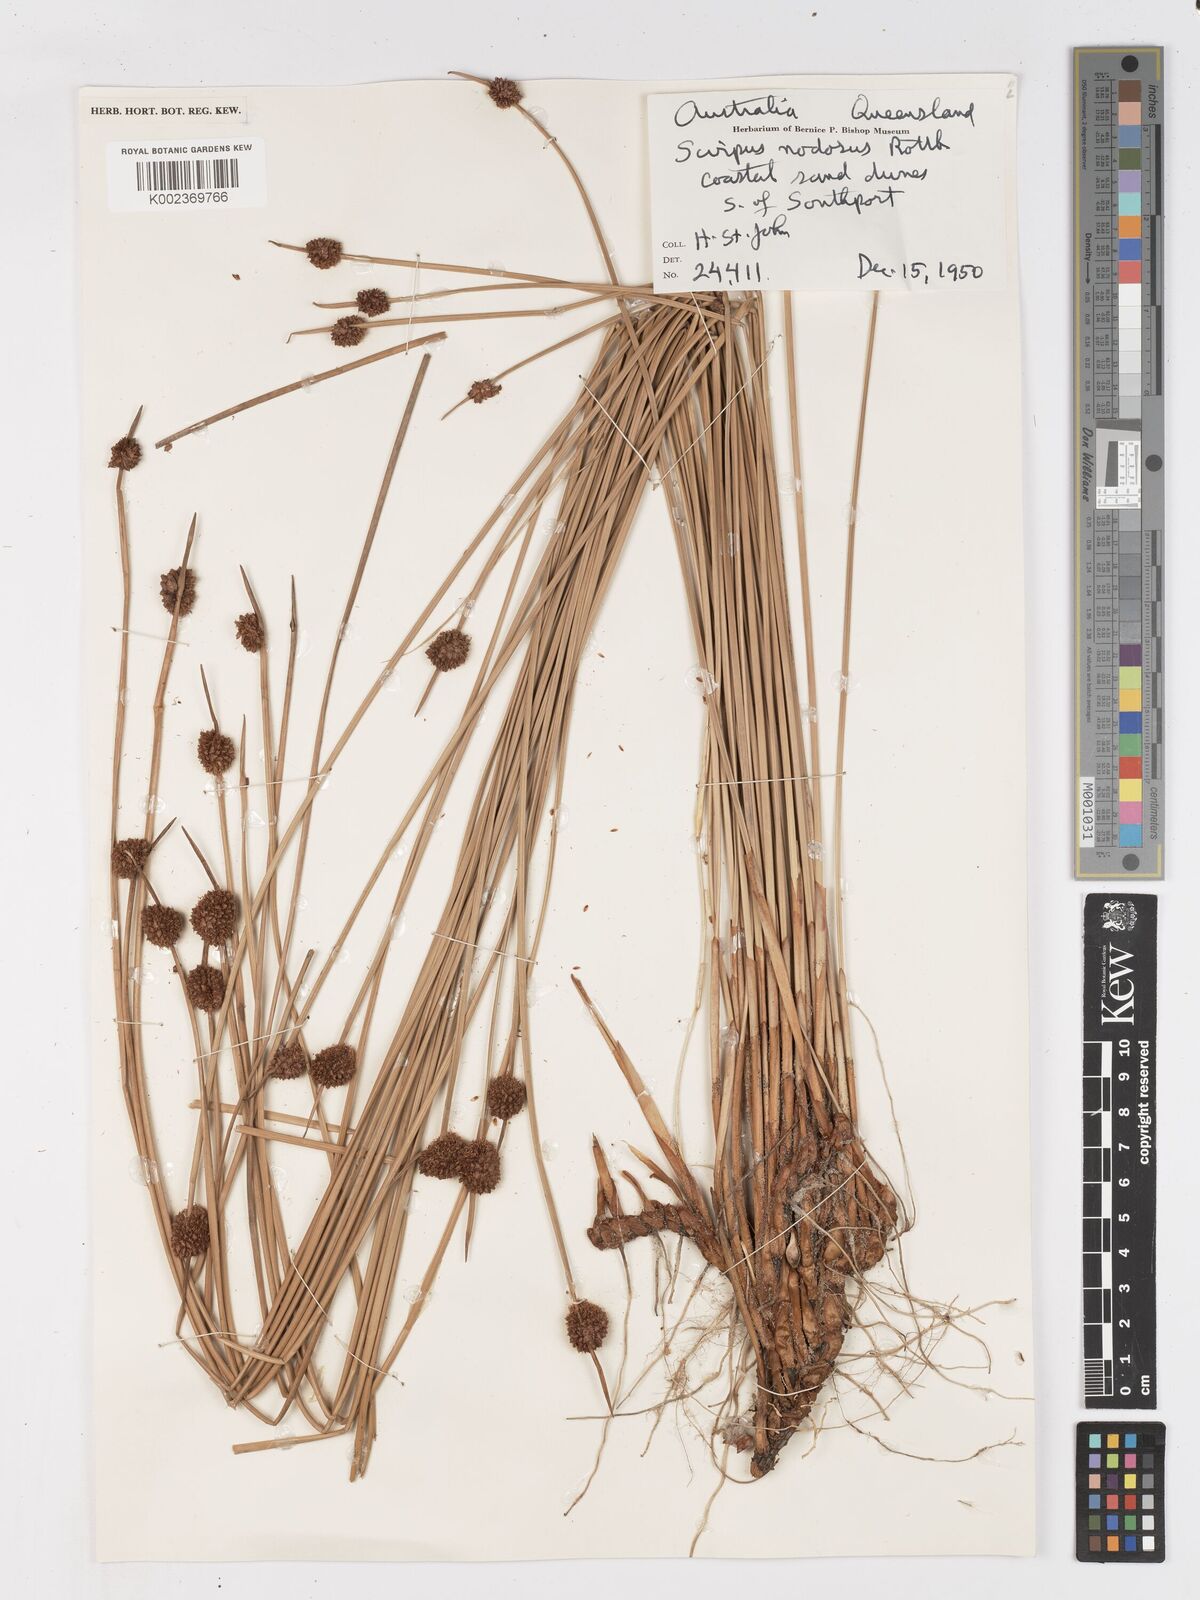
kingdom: Plantae
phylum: Tracheophyta
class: Liliopsida
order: Poales
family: Cyperaceae
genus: Ficinia
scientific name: Ficinia nodosa
